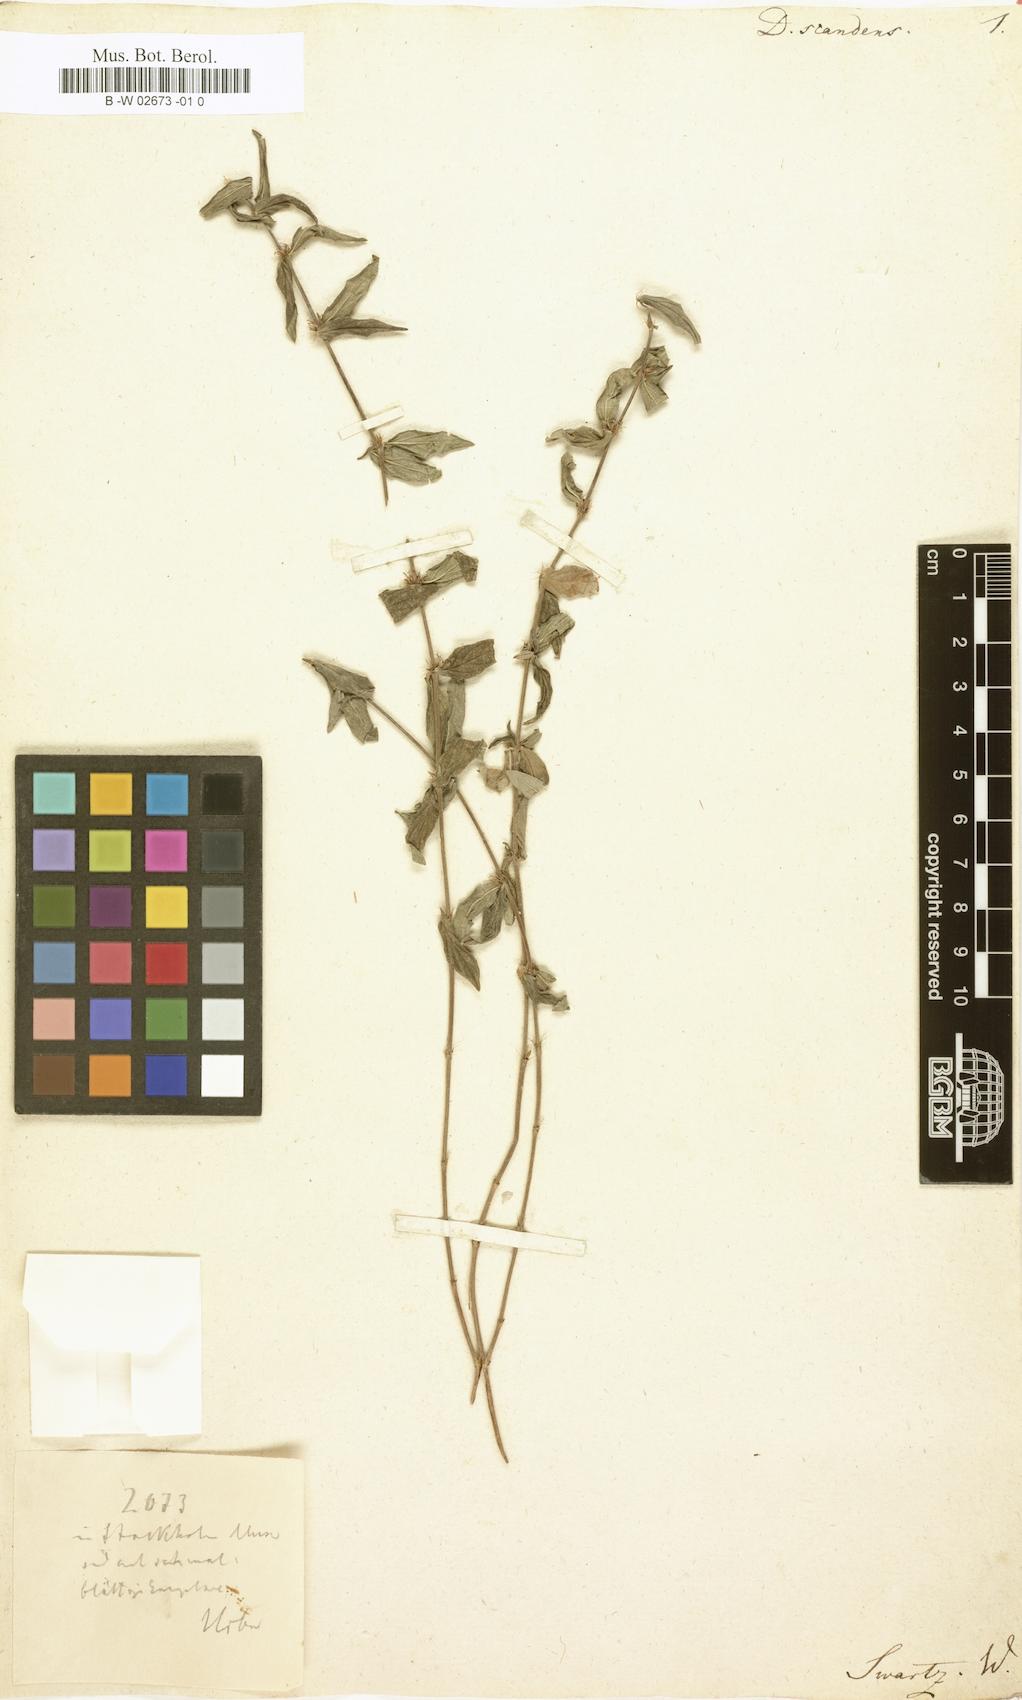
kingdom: Plantae
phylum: Tracheophyta
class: Magnoliopsida
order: Gentianales
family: Rubiaceae
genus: Hexasepalum
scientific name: Hexasepalum
